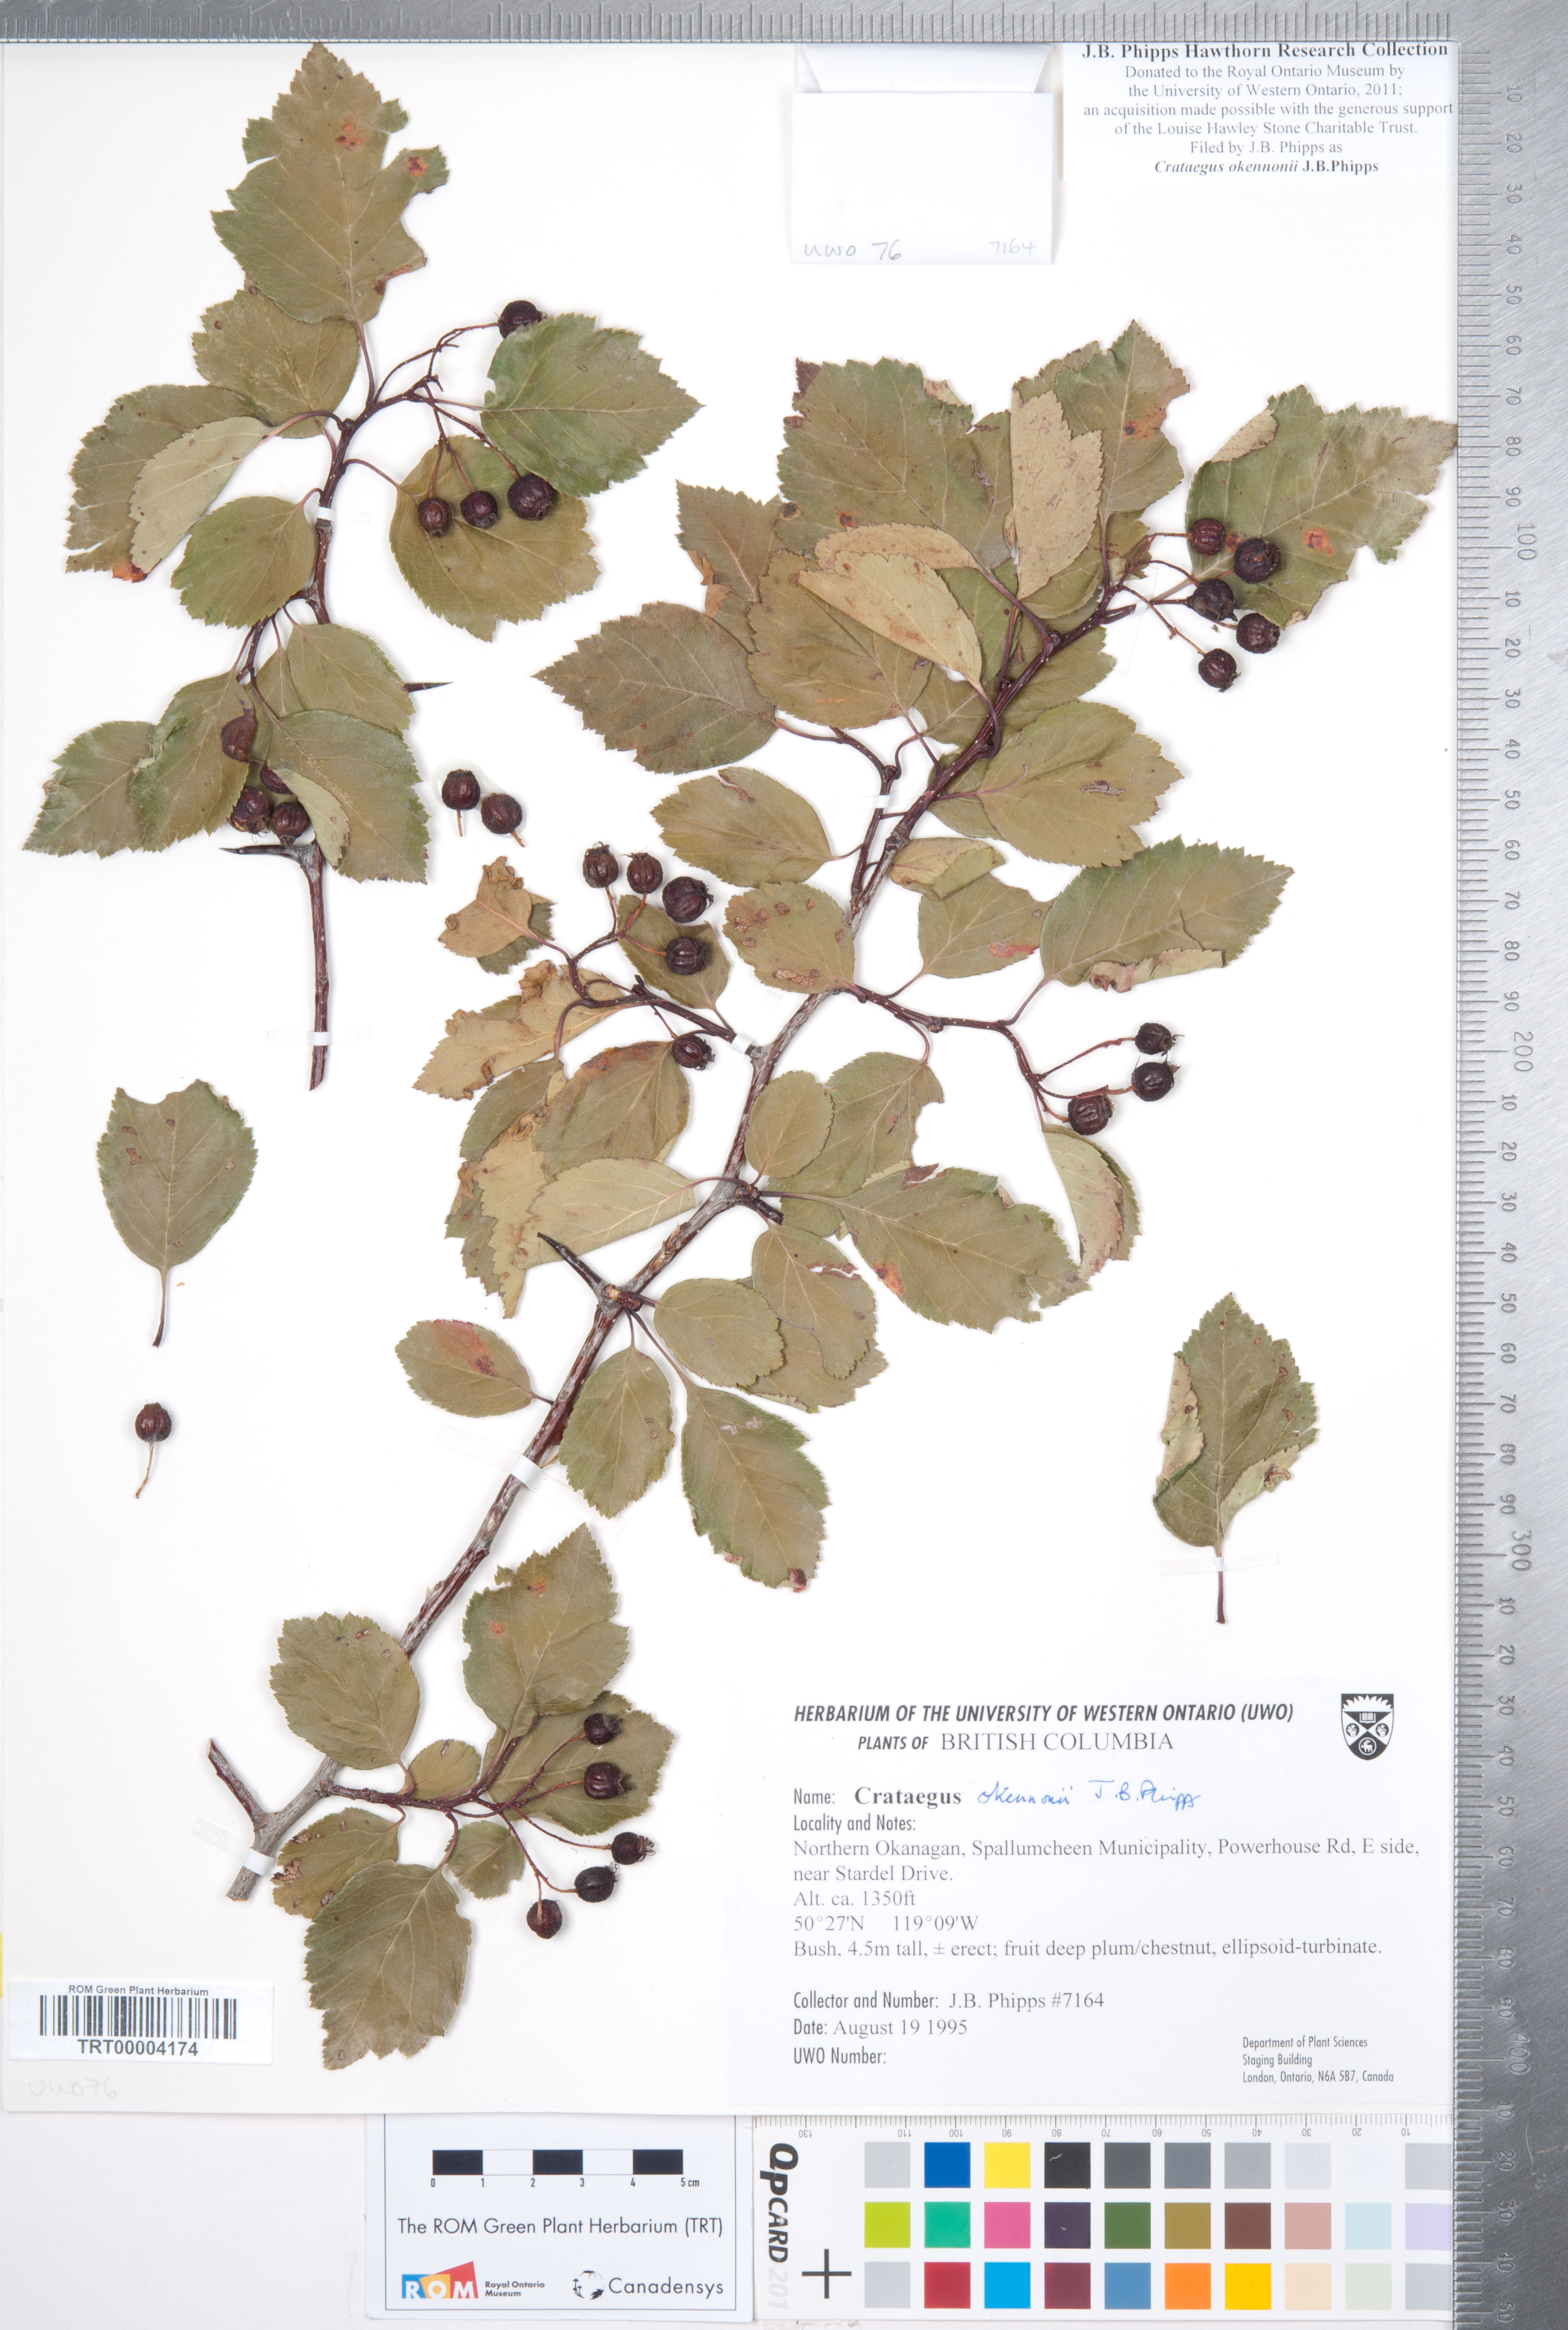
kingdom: Plantae
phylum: Tracheophyta
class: Magnoliopsida
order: Rosales
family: Rosaceae
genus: Crataegus
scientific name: Crataegus okennonii
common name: O'kennon's hawthorn
